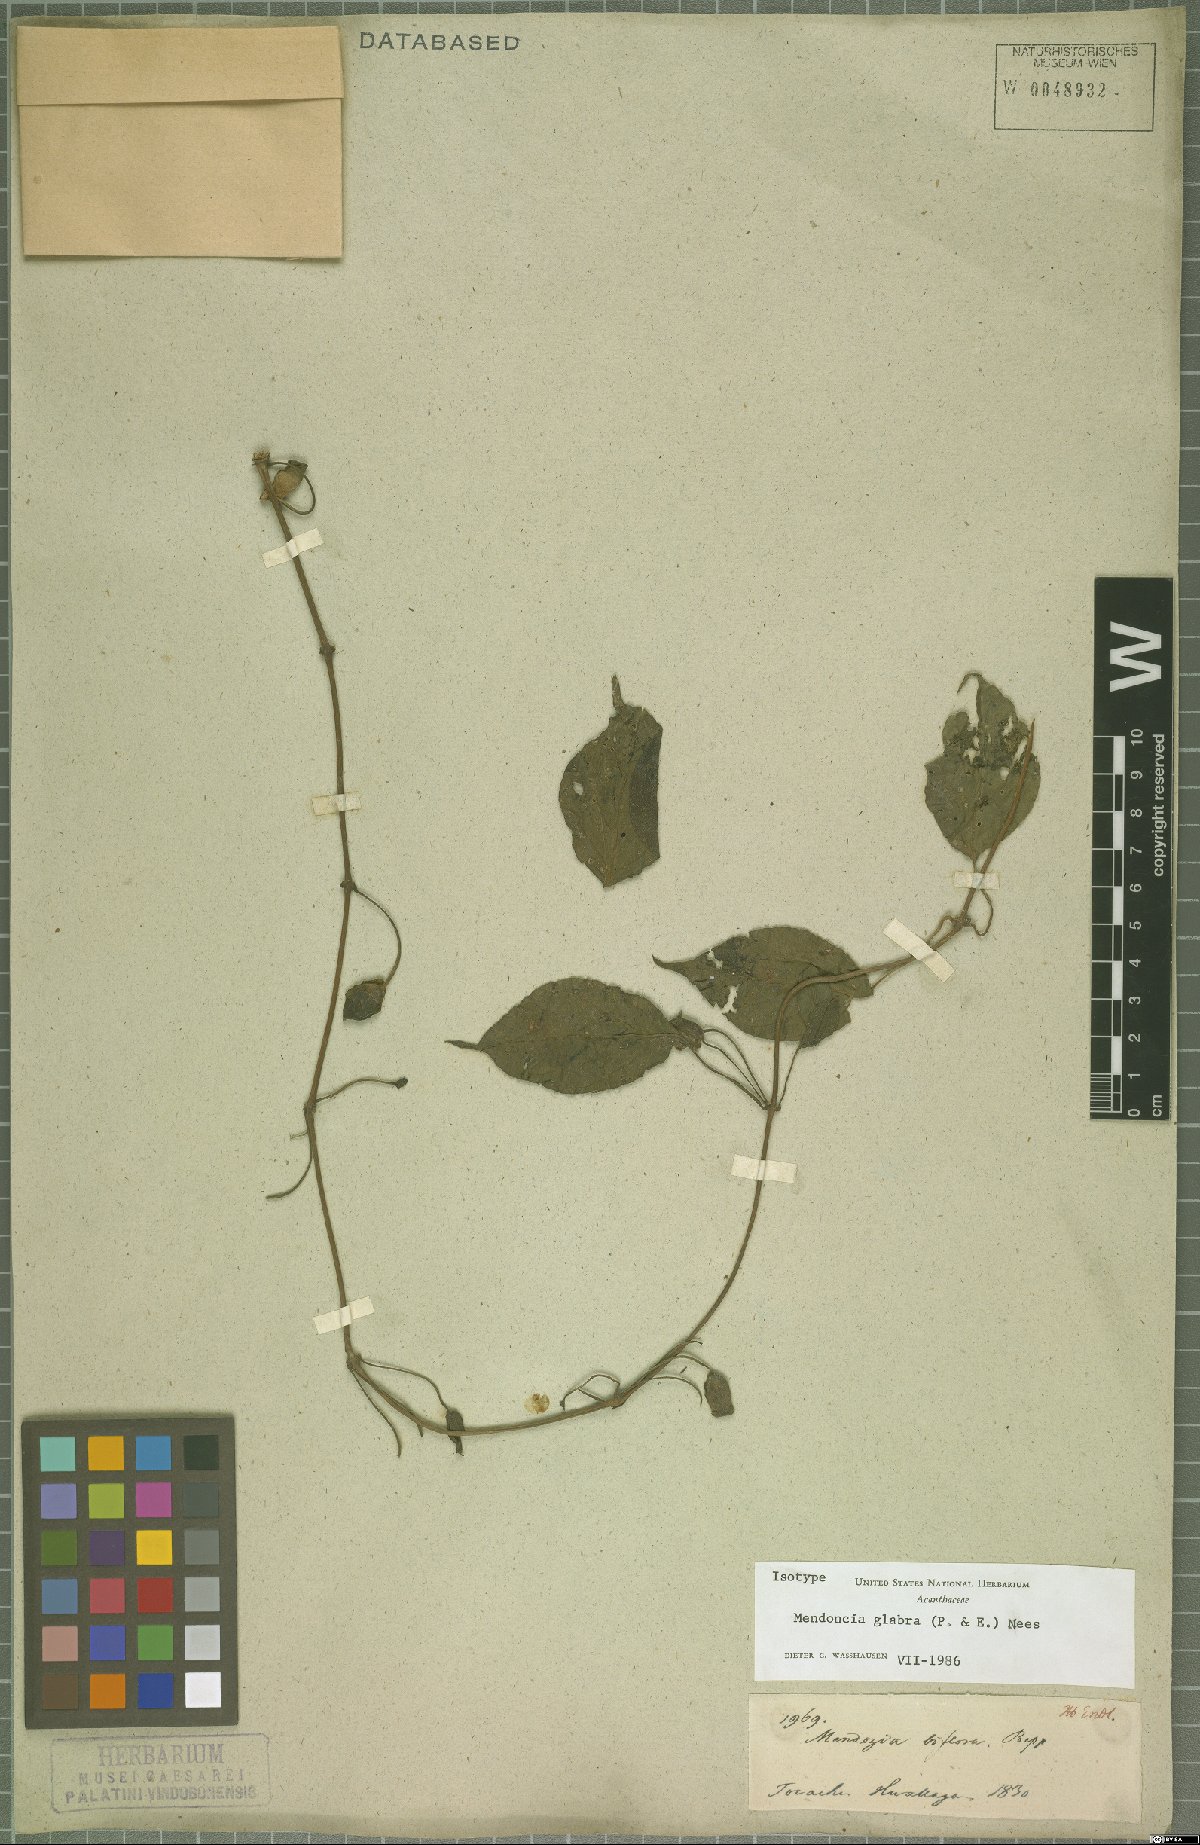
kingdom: Plantae
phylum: Tracheophyta
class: Magnoliopsida
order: Lamiales
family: Acanthaceae
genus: Mendoncia
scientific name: Mendoncia glabra
